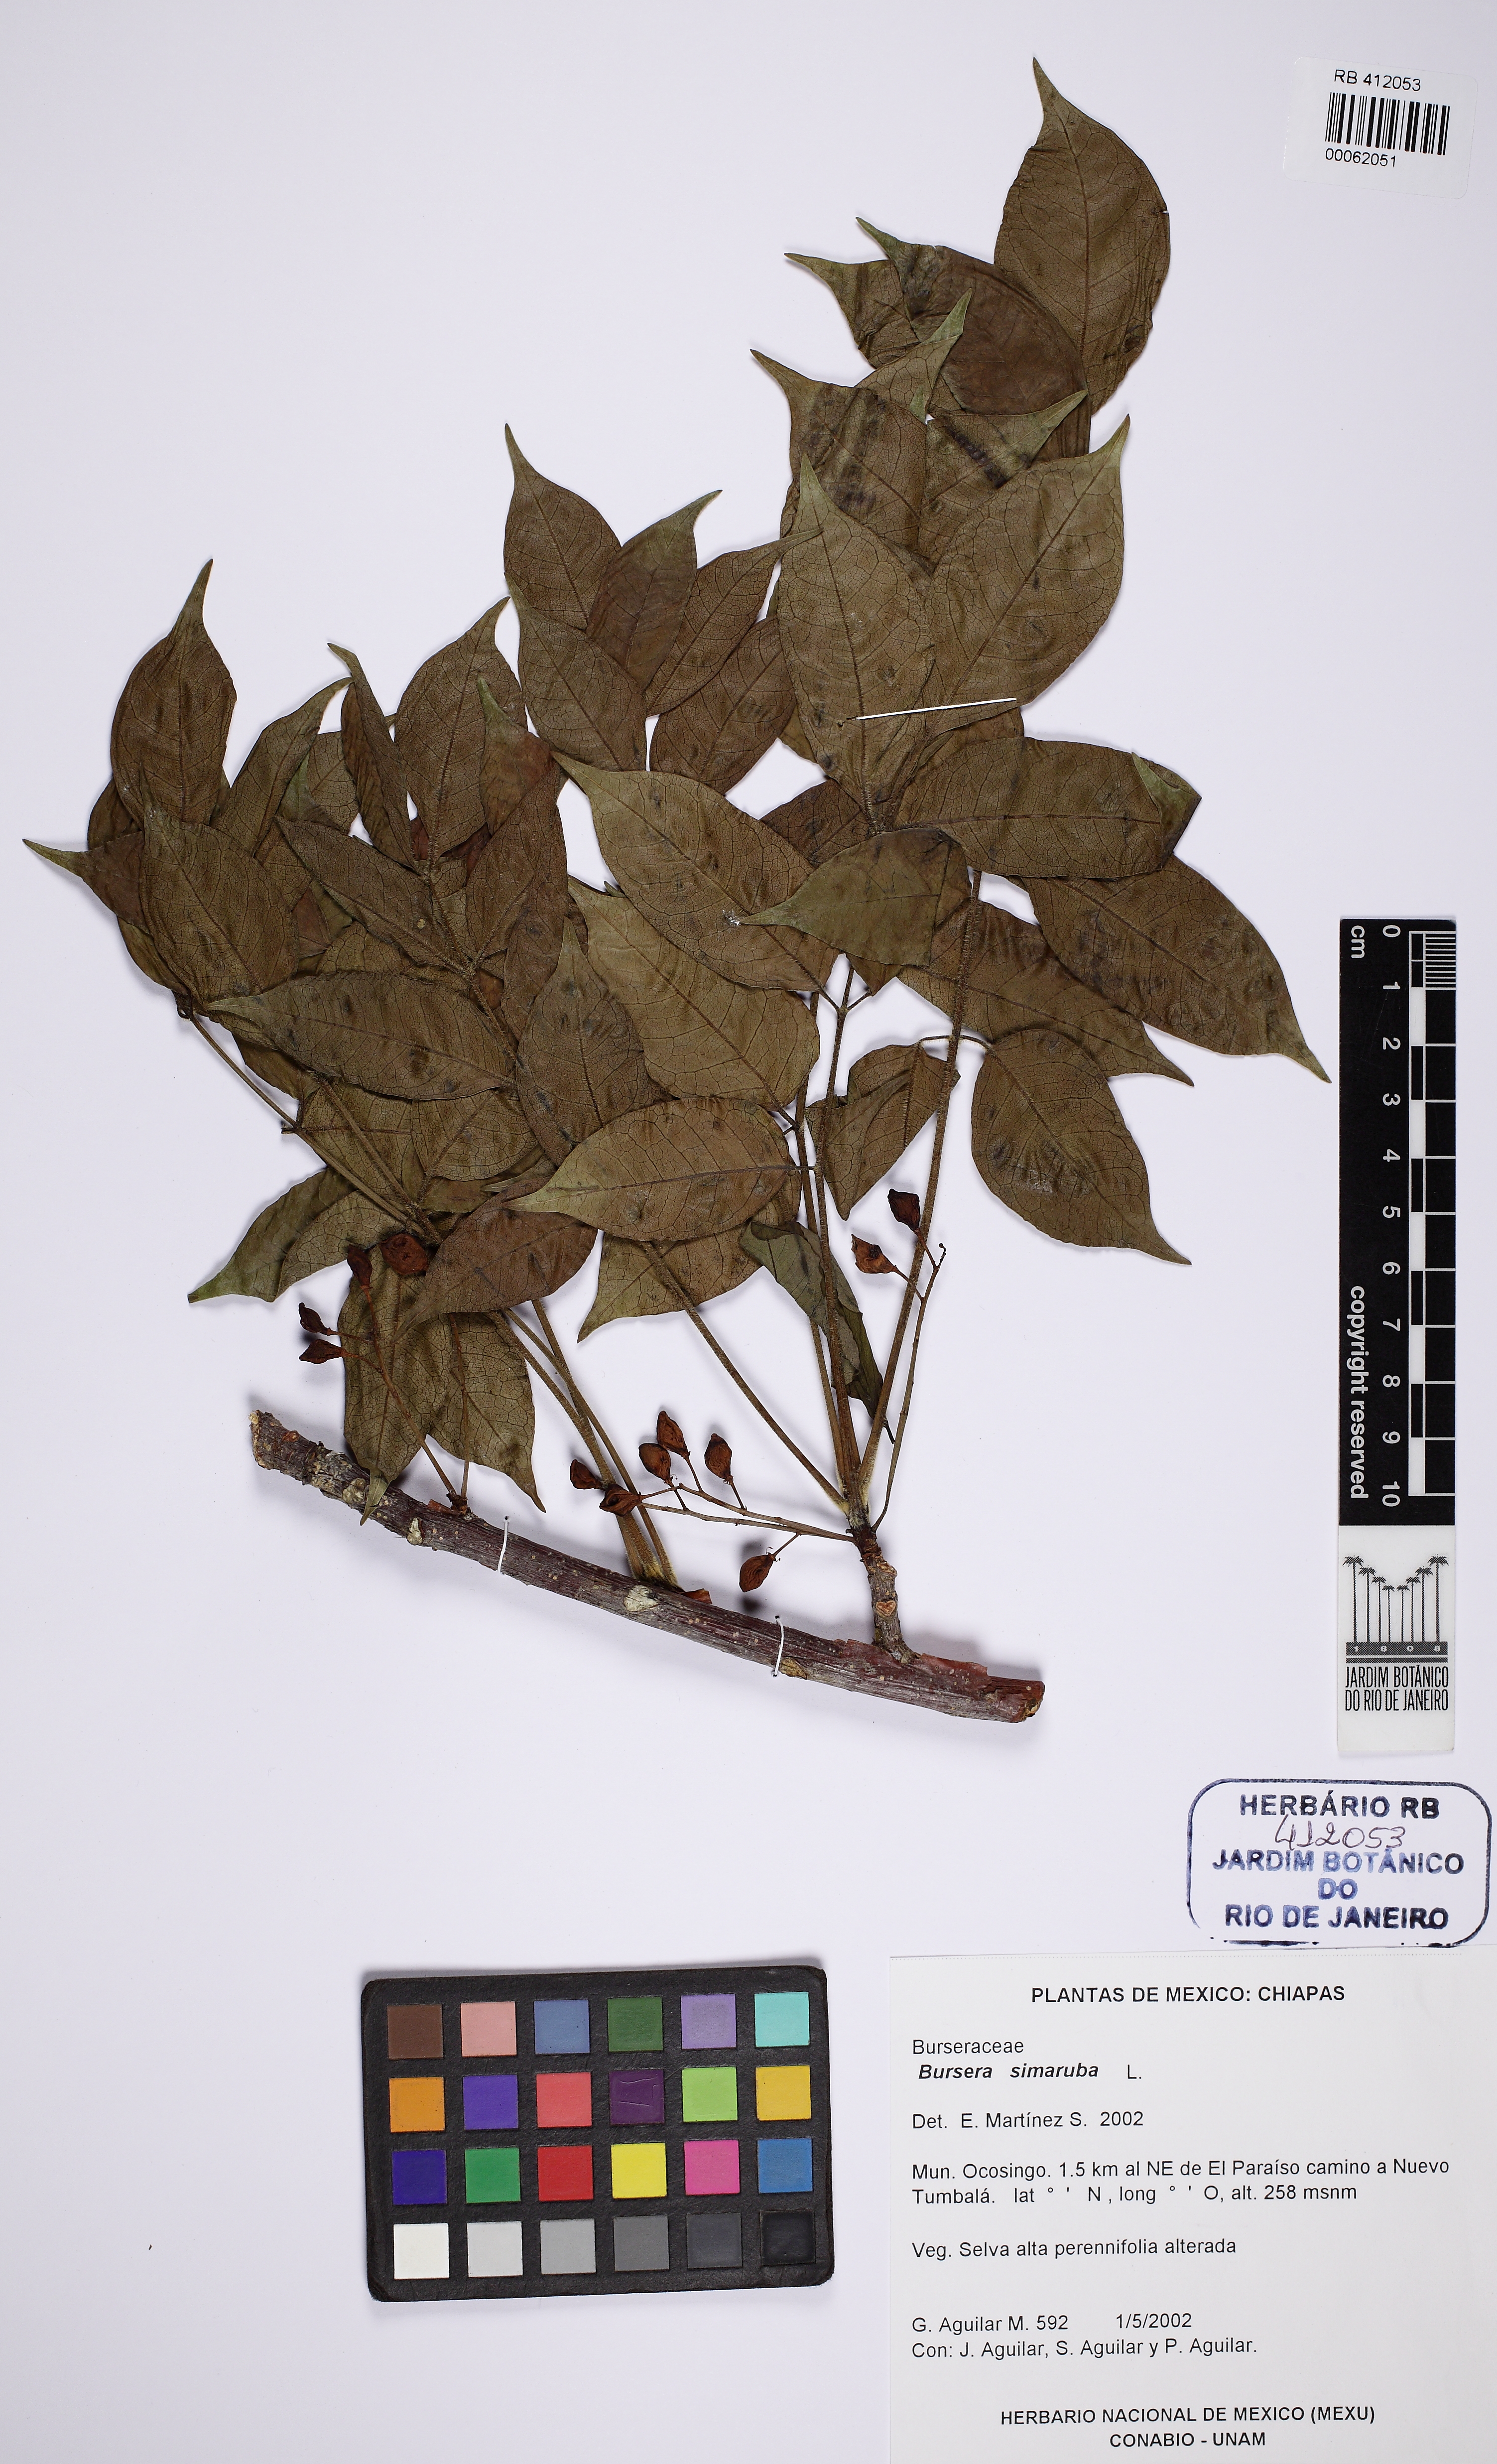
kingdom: Plantae
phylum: Tracheophyta
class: Magnoliopsida
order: Sapindales
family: Burseraceae
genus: Bursera
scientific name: Bursera simaruba
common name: Turpentine tree
